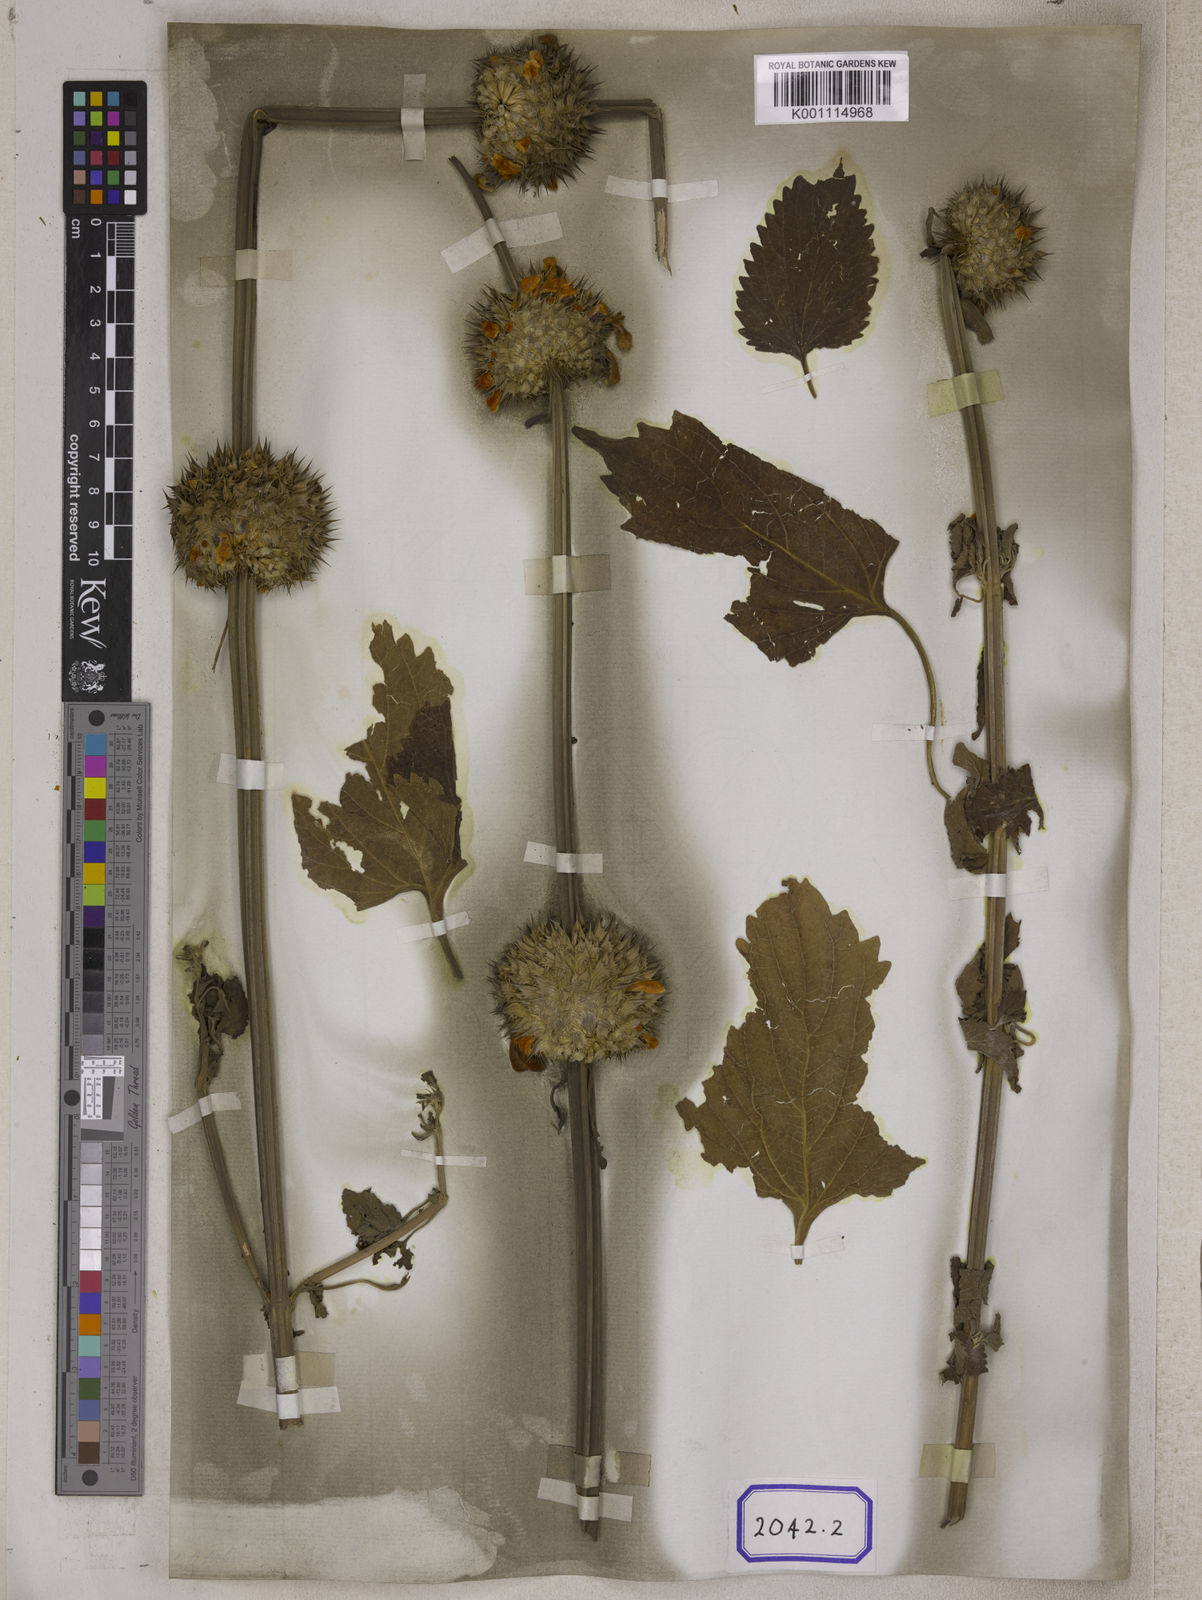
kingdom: Plantae
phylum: Tracheophyta
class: Magnoliopsida
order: Lamiales
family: Lamiaceae
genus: Leonotis
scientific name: Leonotis nepetifolia
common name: Christmas candlestick
